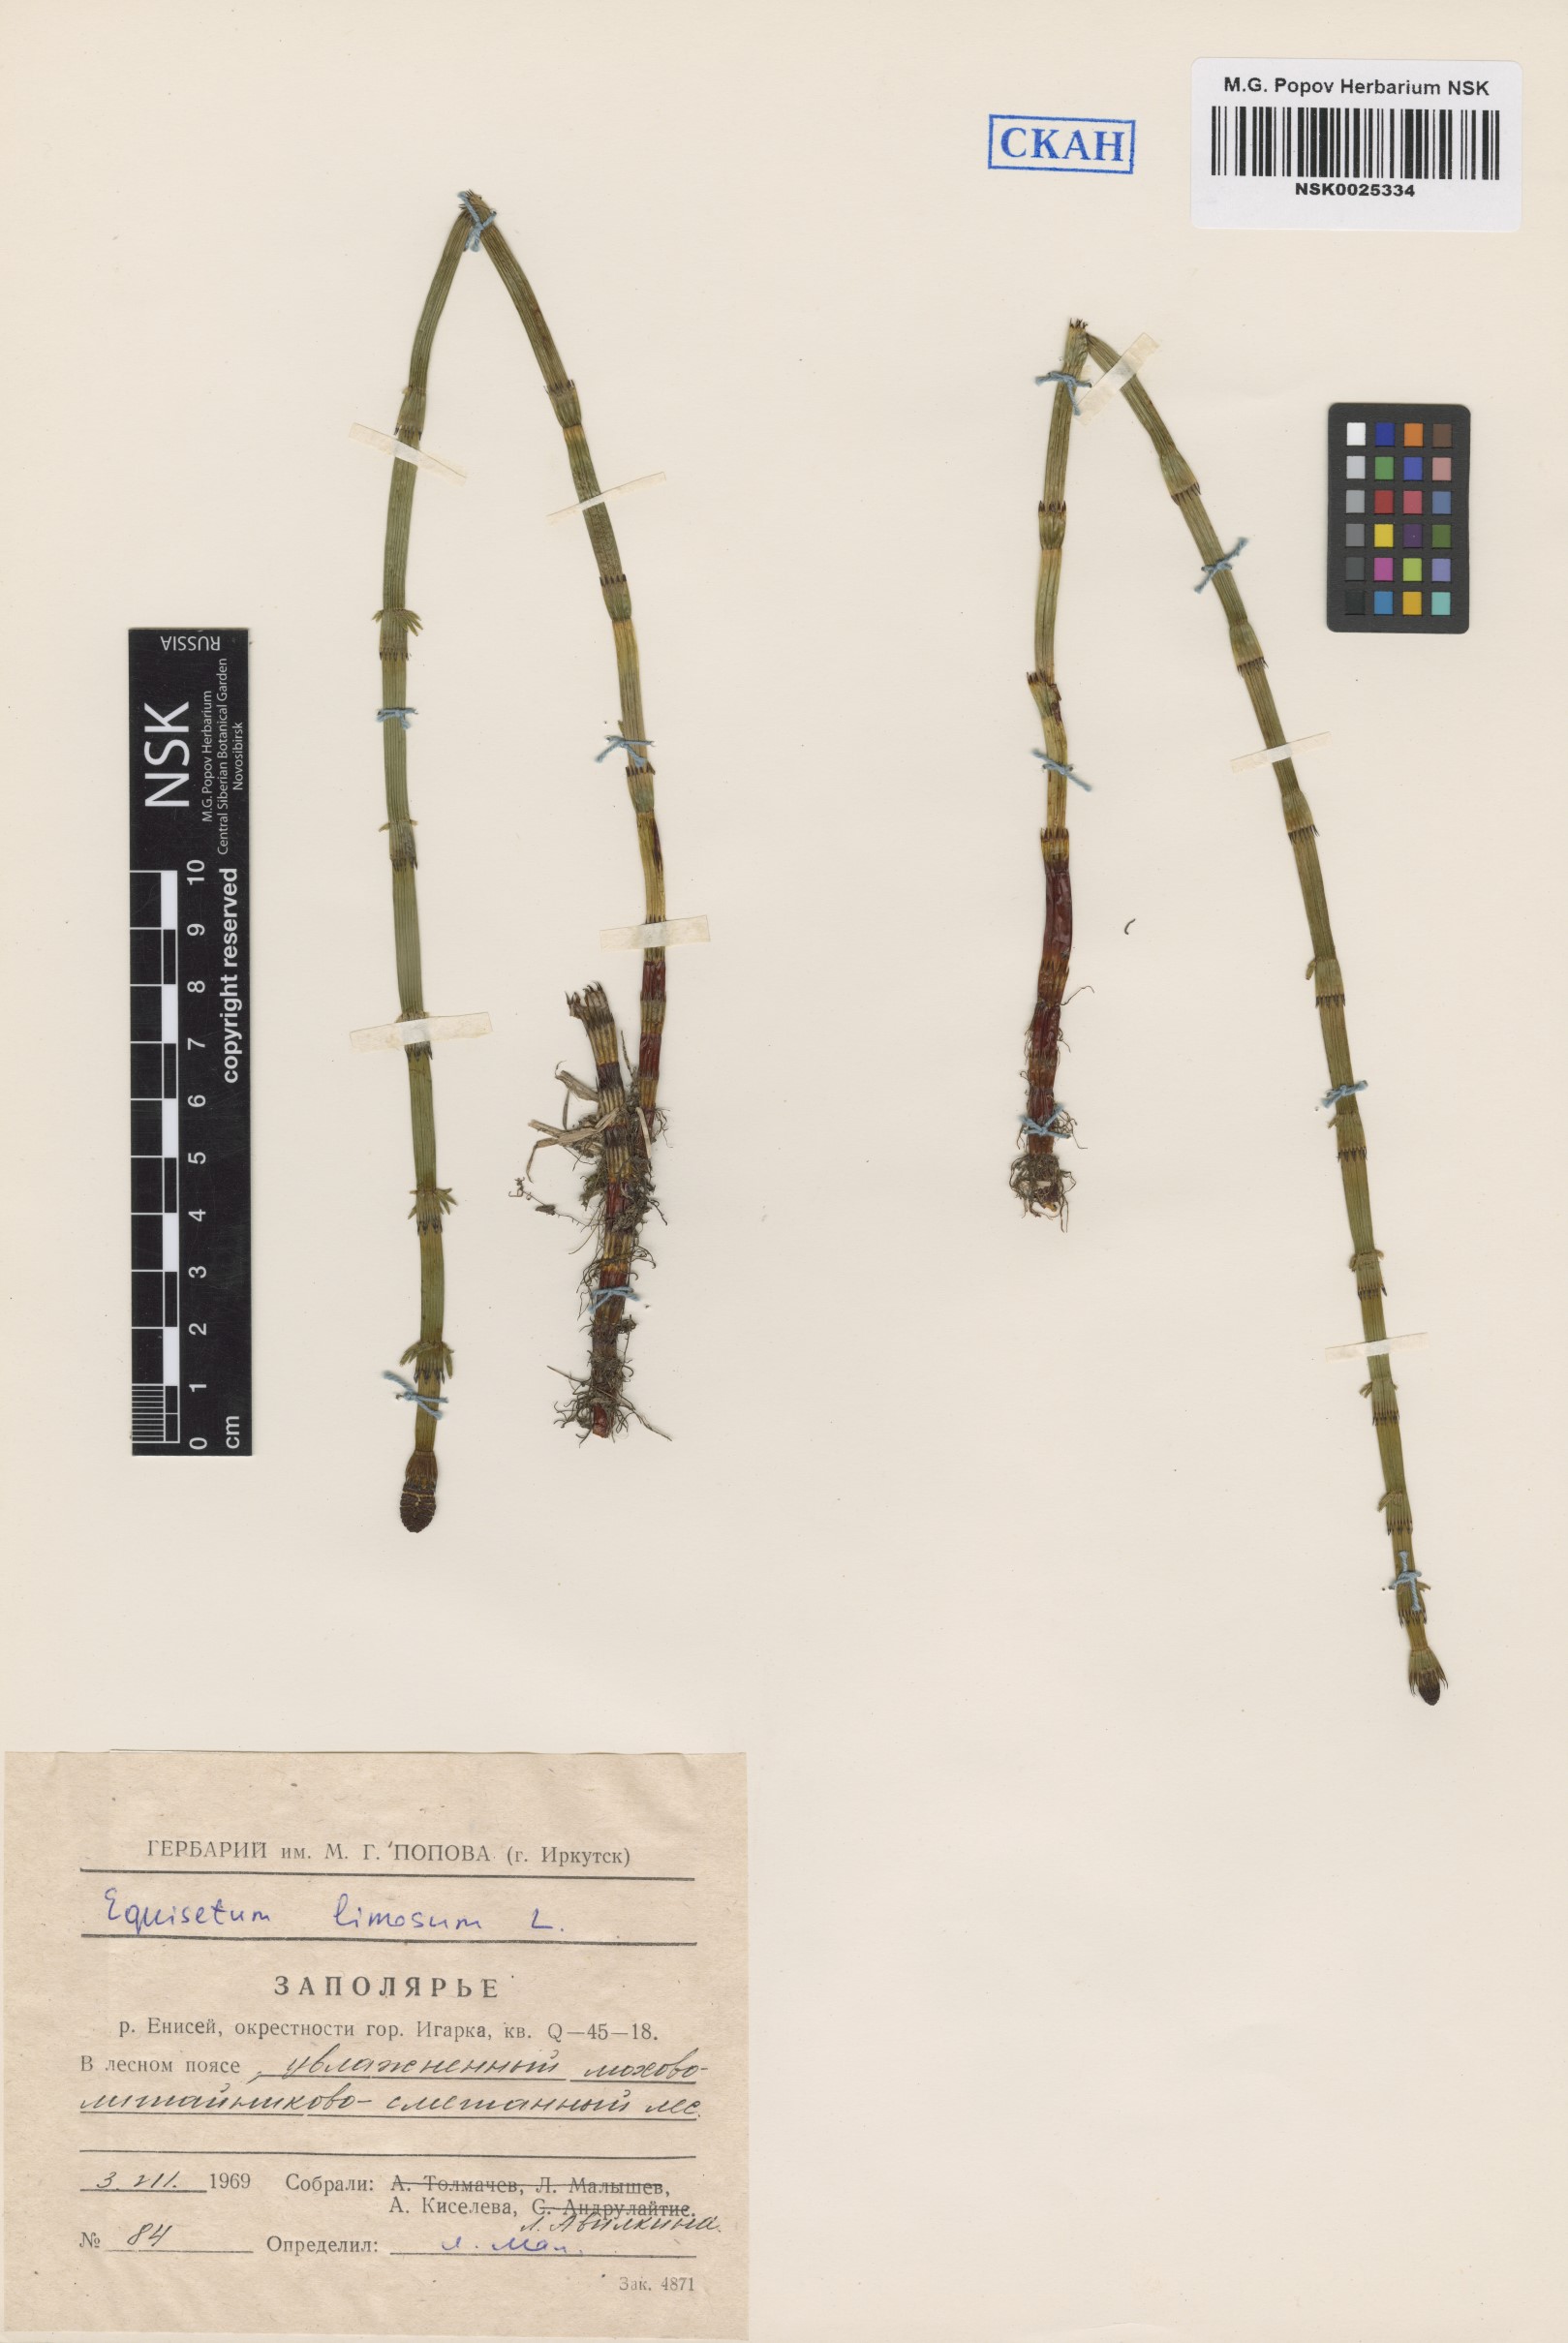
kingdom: Plantae
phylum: Tracheophyta
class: Polypodiopsida
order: Equisetales
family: Equisetaceae
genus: Equisetum
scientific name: Equisetum fluviatile
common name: Water horsetail
